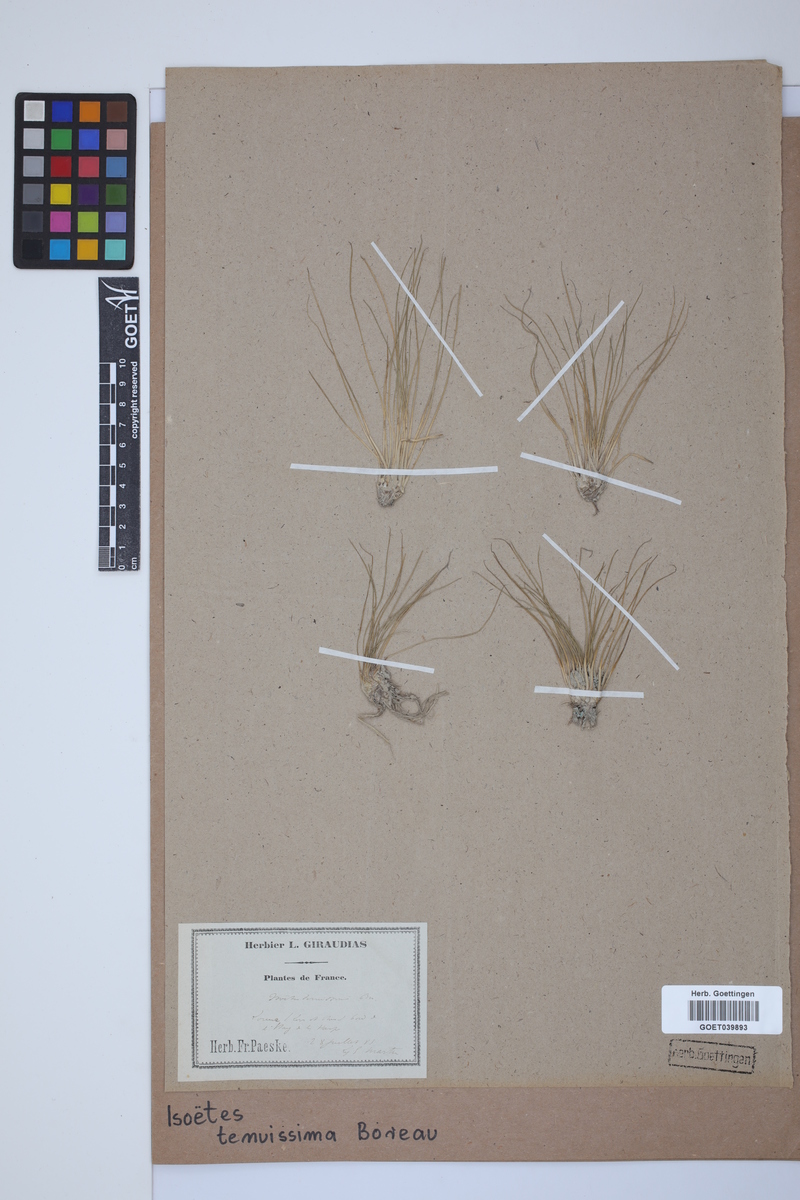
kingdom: Plantae
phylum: Tracheophyta
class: Lycopodiopsida
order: Isoetales
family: Isoetaceae
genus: Isoetes
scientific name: Isoetes muelleri
